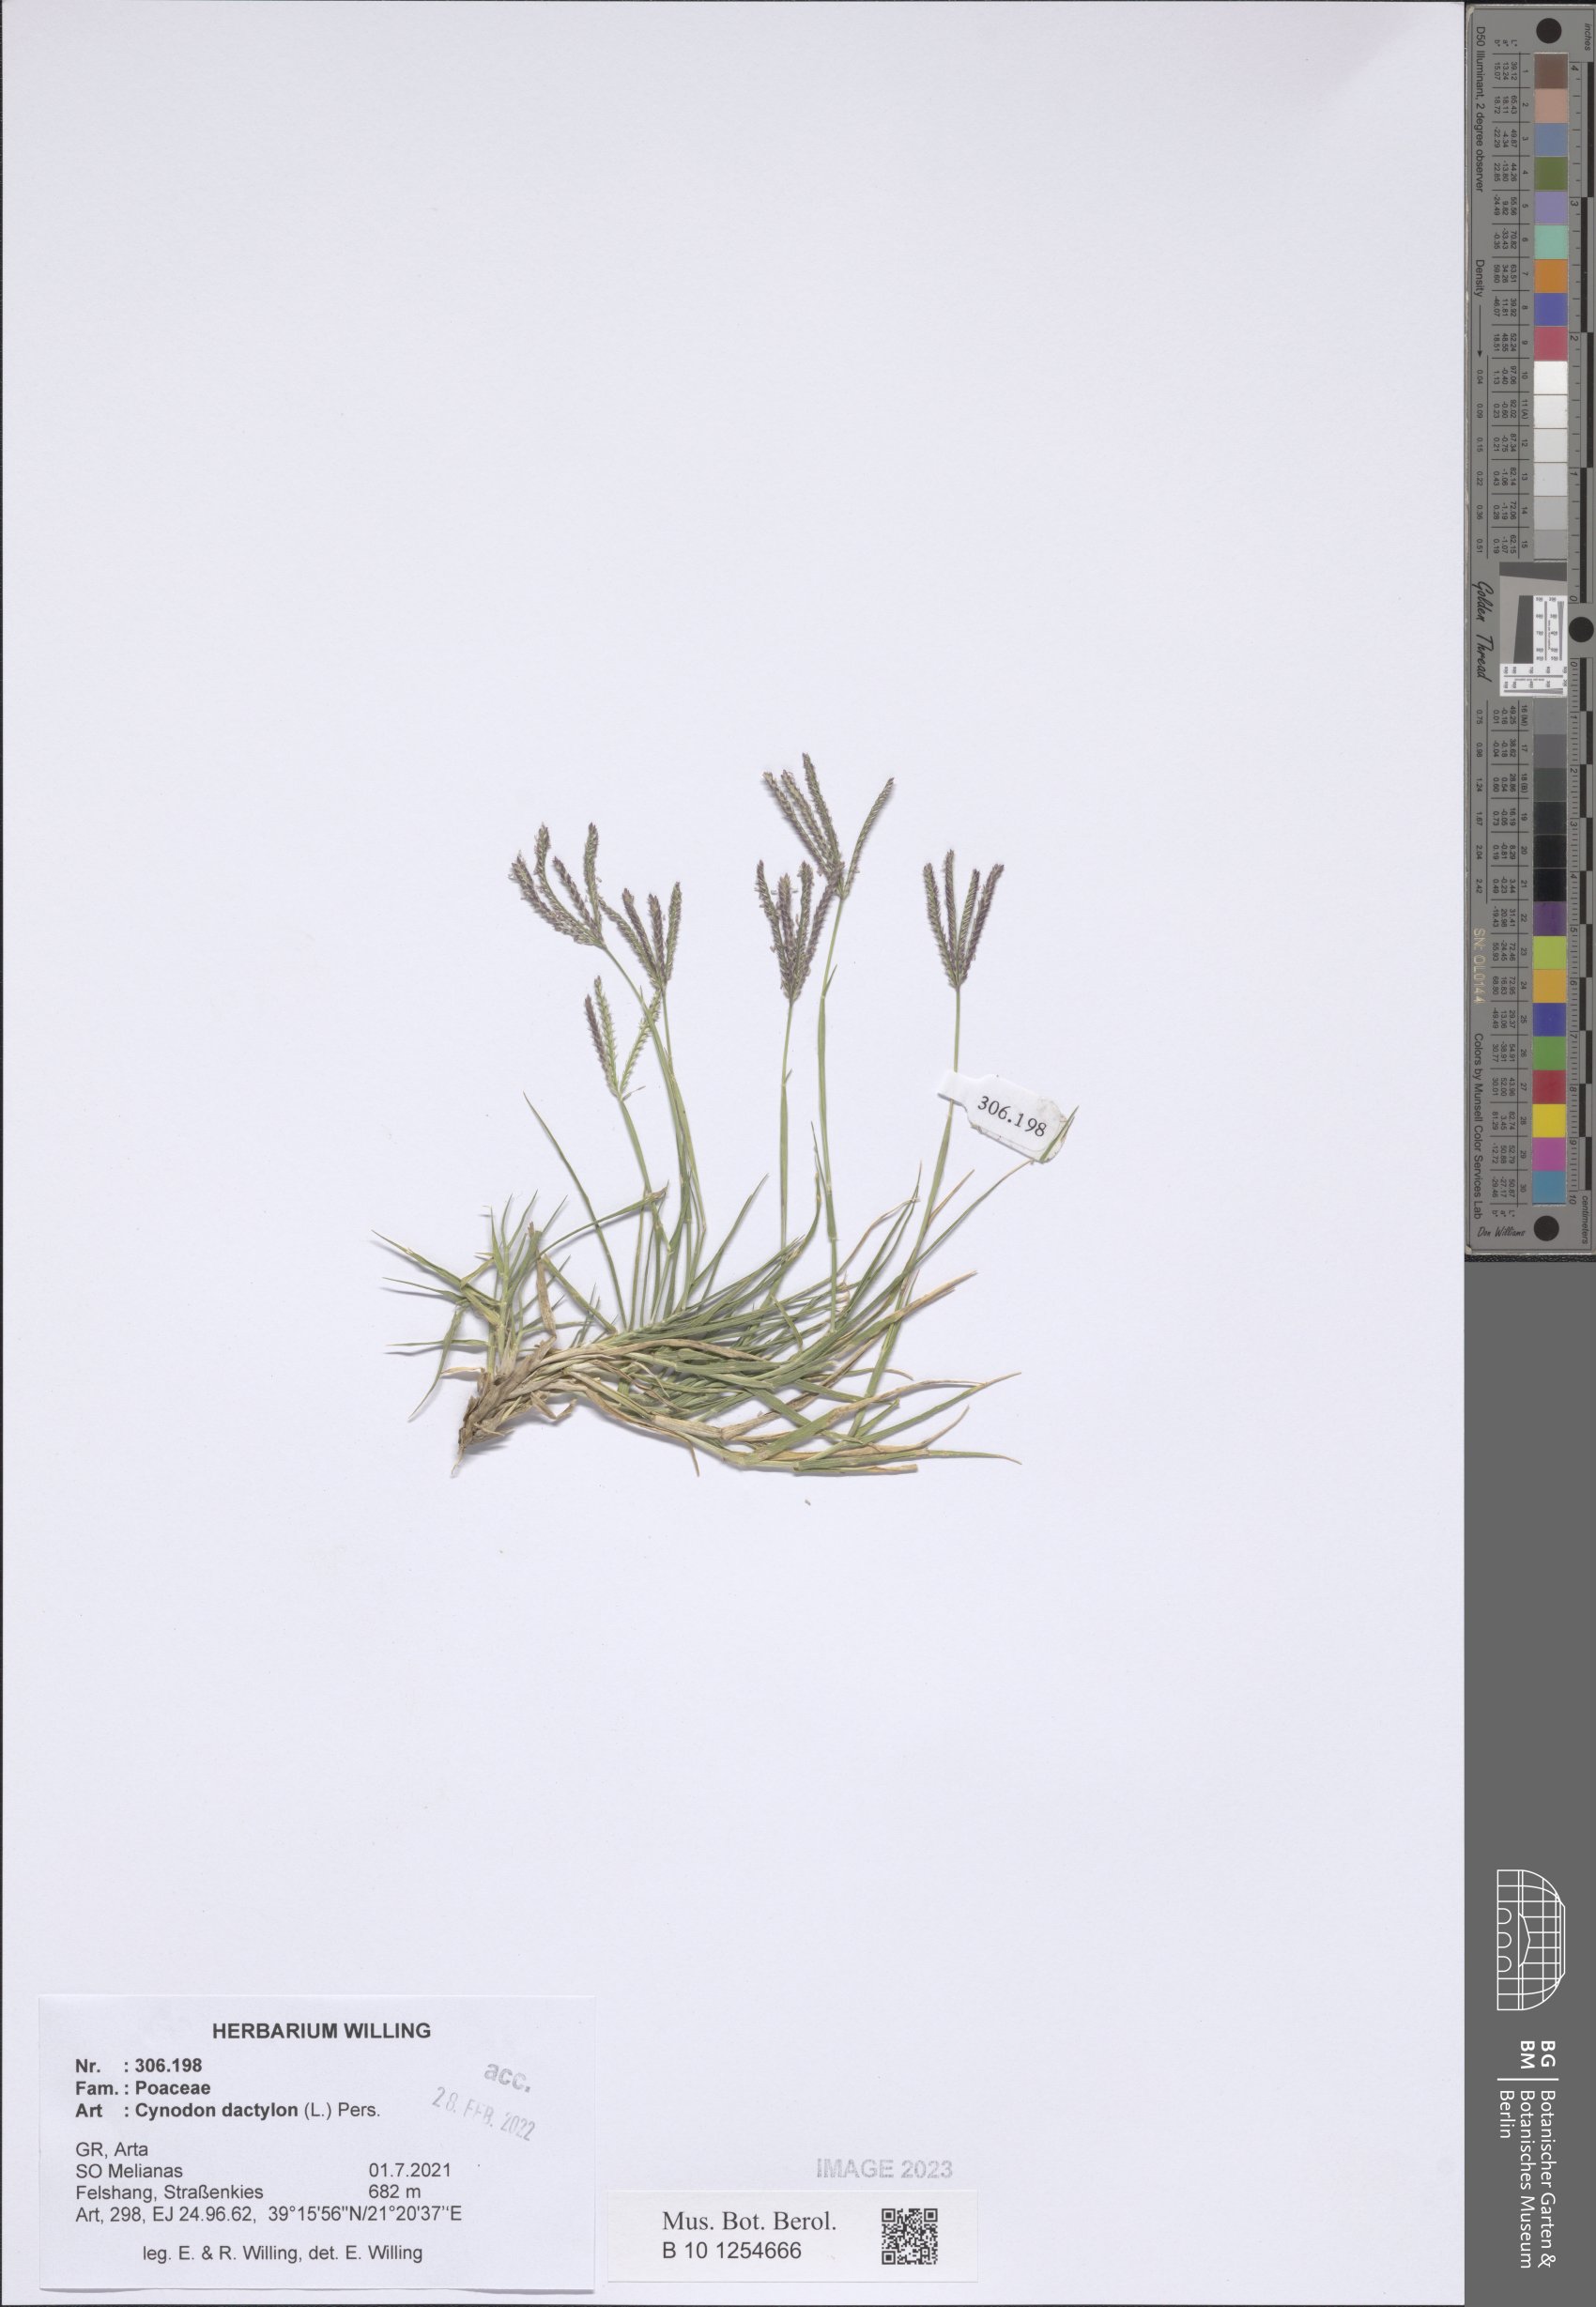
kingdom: Plantae
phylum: Tracheophyta
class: Liliopsida
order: Poales
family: Poaceae
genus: Cynodon
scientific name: Cynodon dactylon
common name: Bermuda grass
